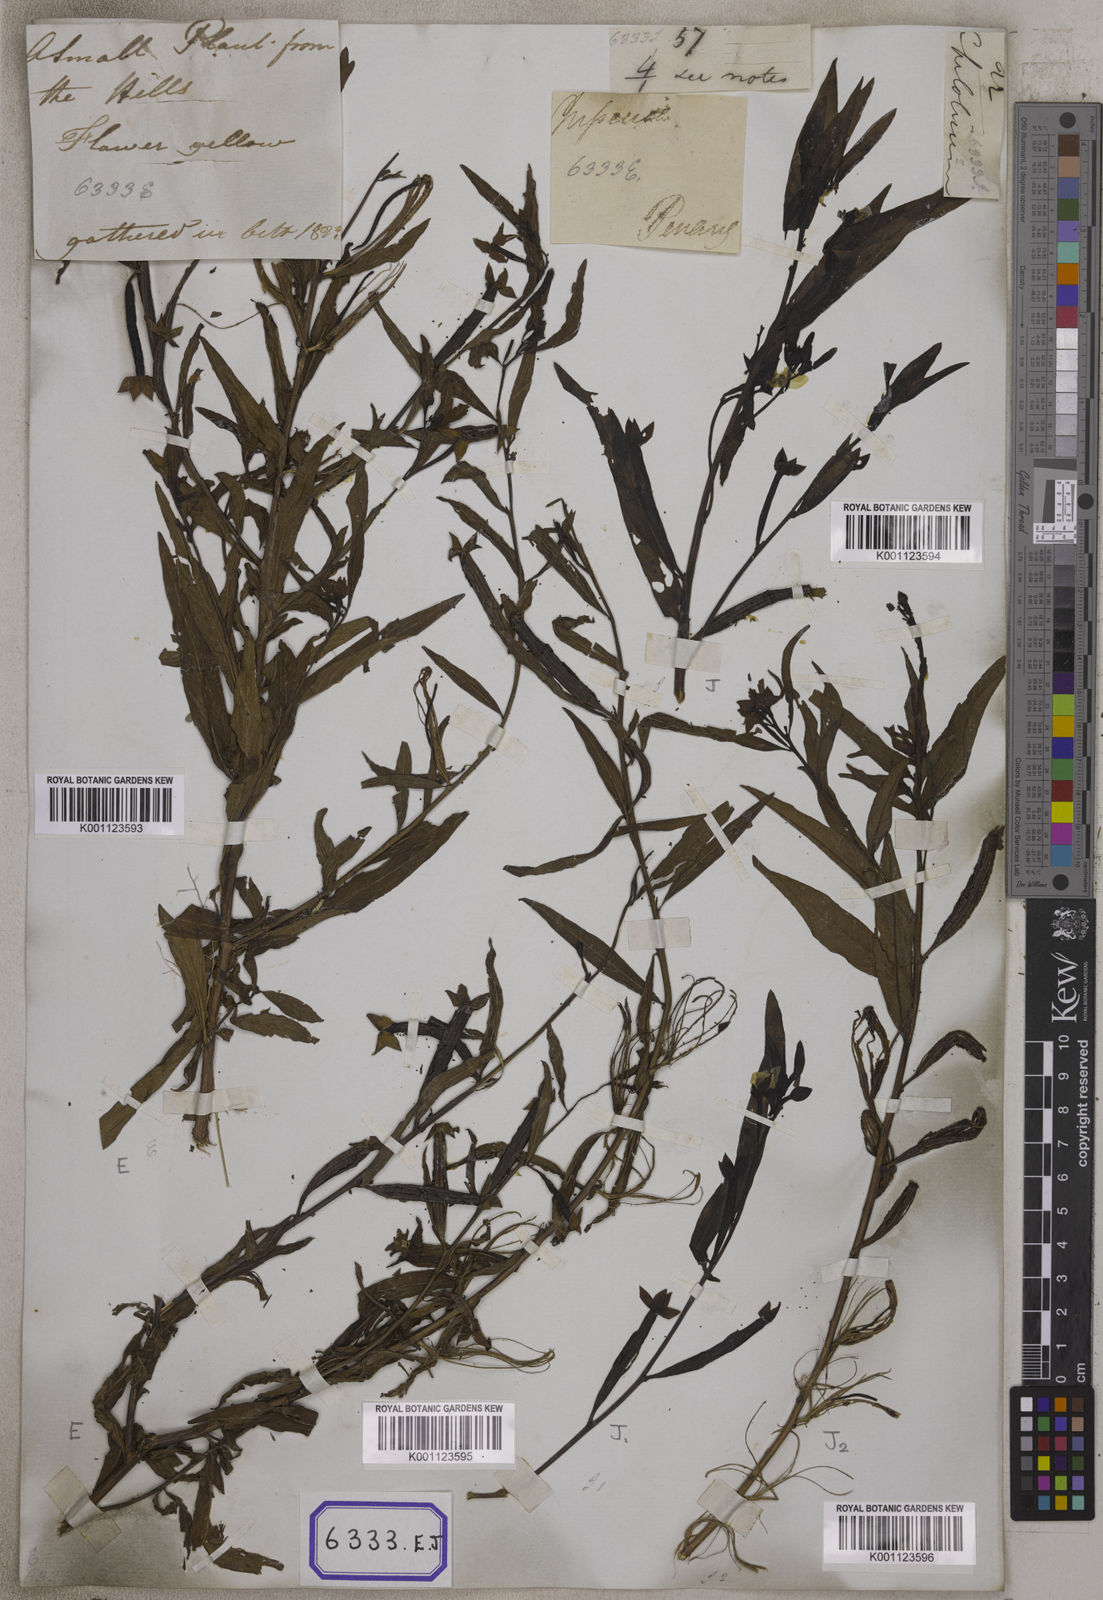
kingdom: Plantae
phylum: Tracheophyta
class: Magnoliopsida
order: Myrtales
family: Onagraceae
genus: Ludwigia
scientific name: Ludwigia octovalvis
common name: Water-primrose
